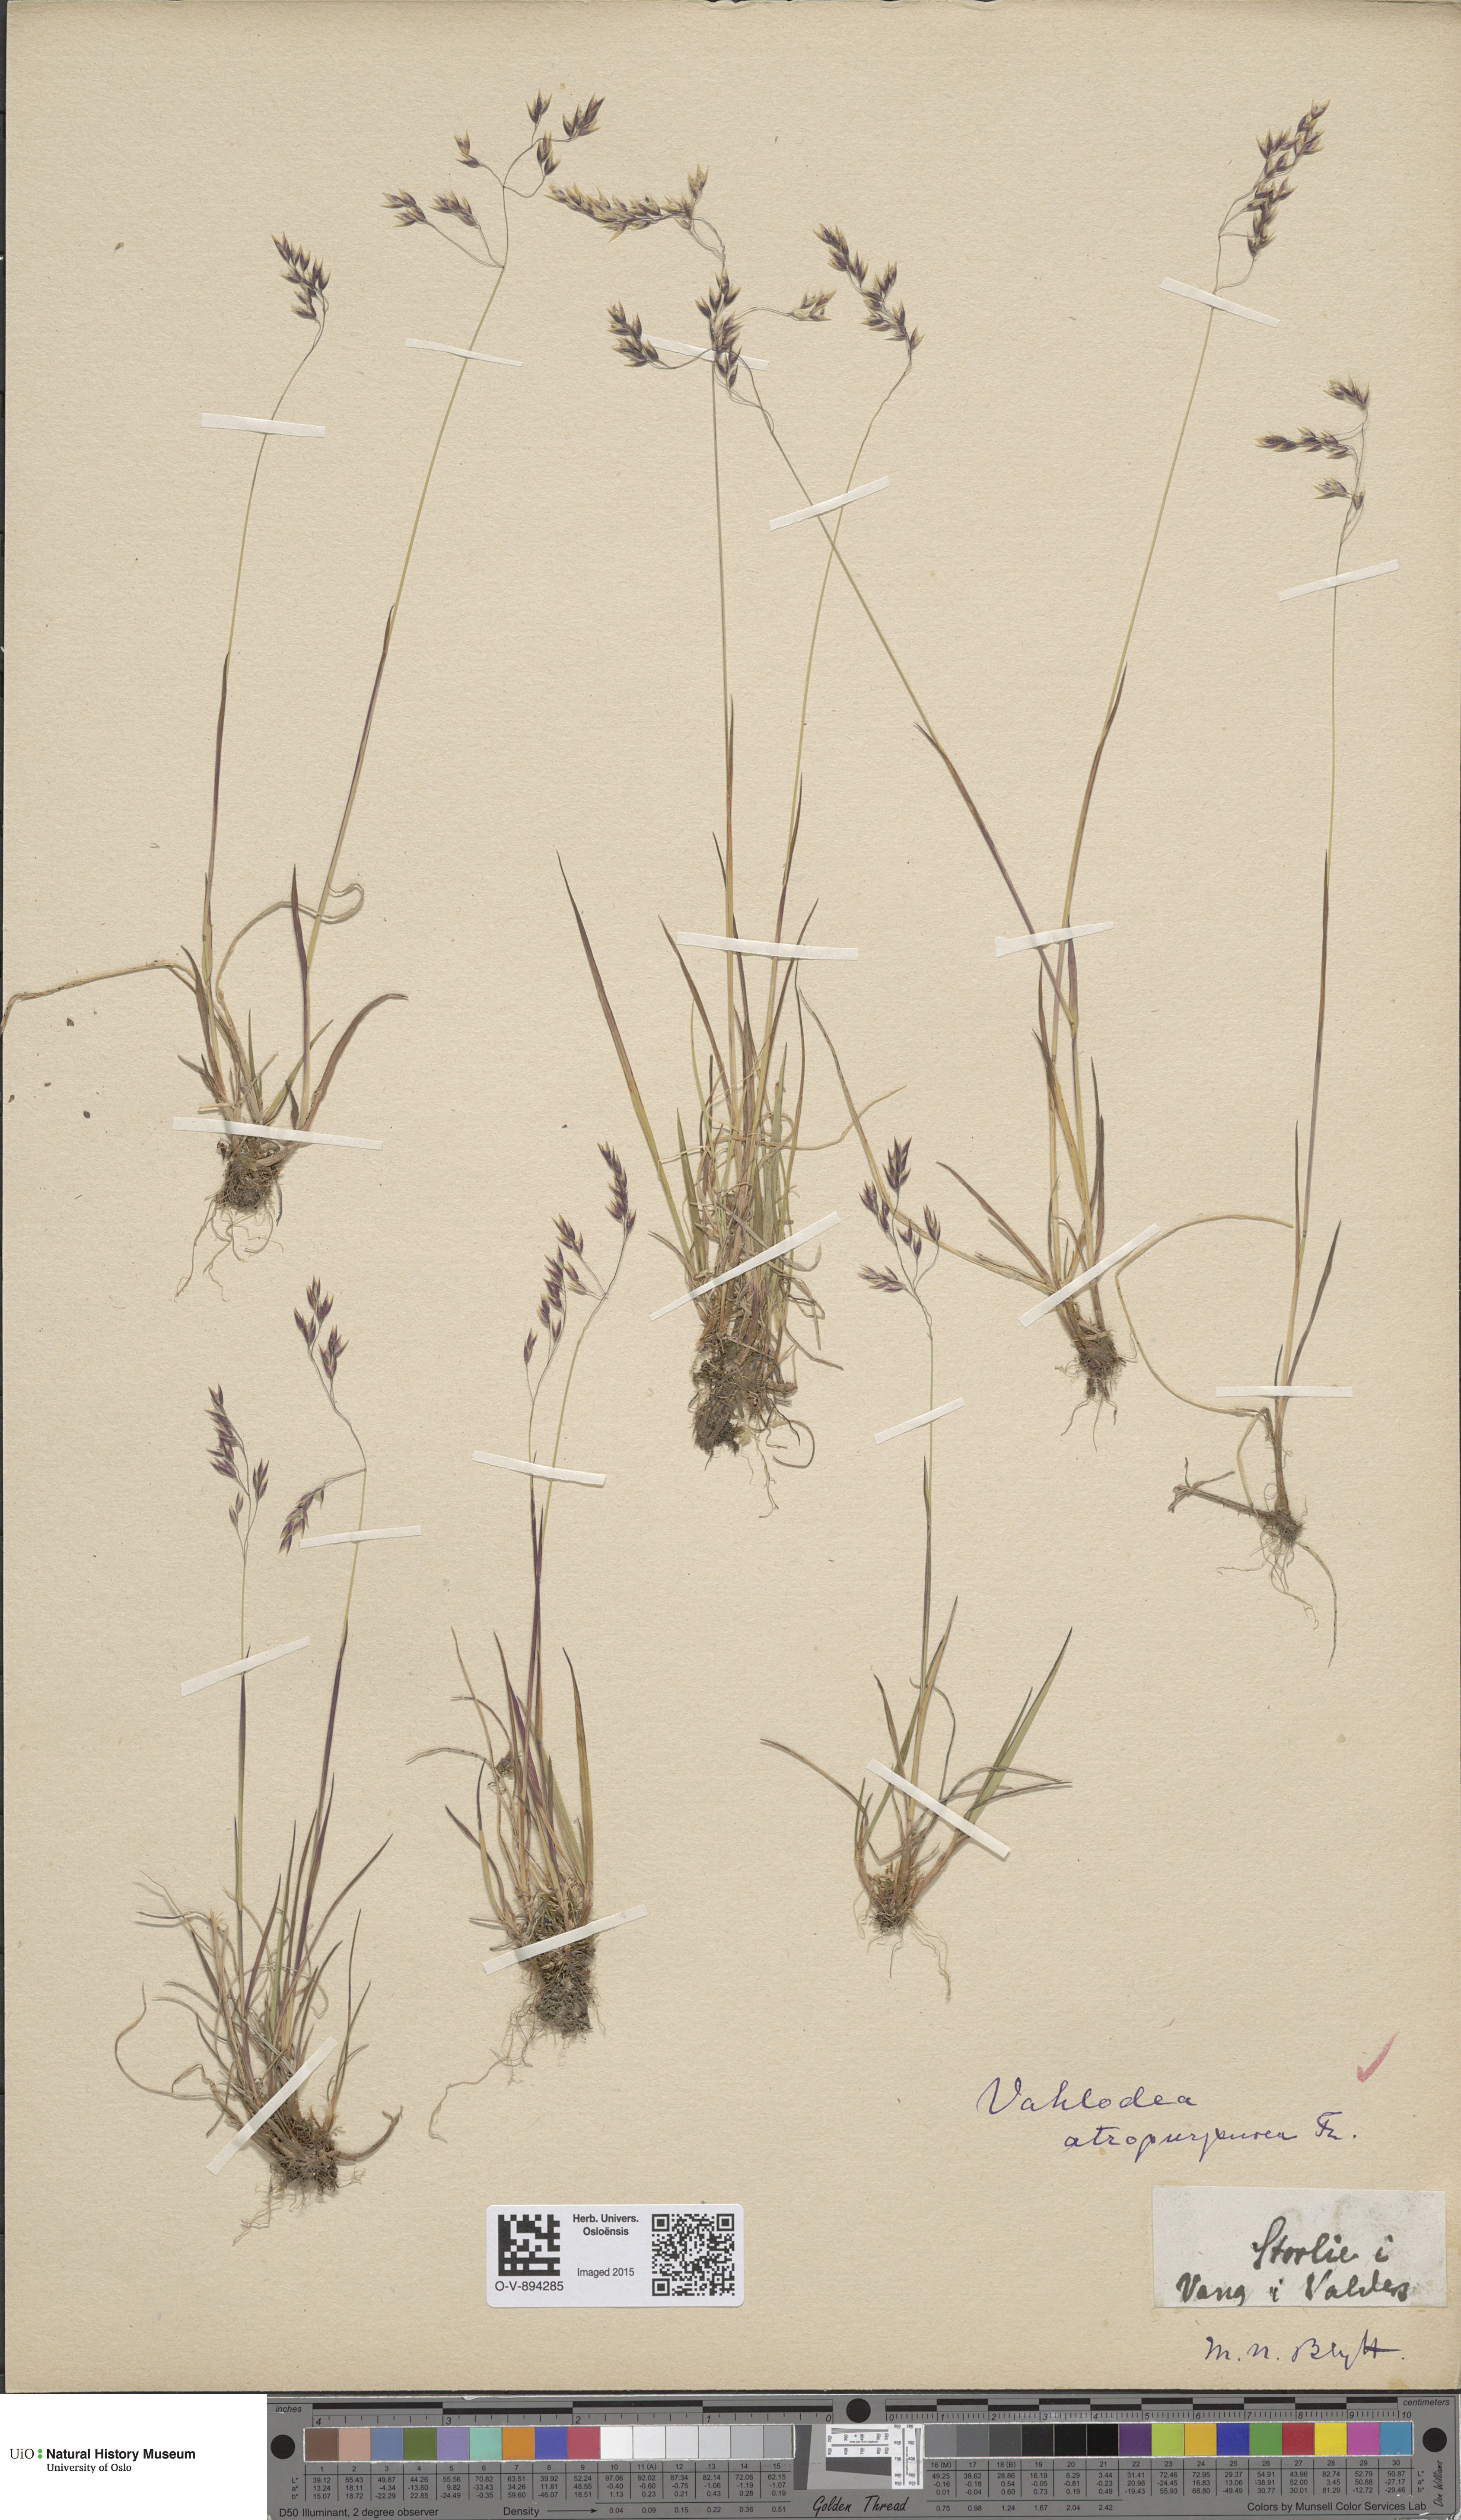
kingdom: Plantae
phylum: Tracheophyta
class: Liliopsida
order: Poales
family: Poaceae
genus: Vahlodea
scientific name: Vahlodea atropurpurea
